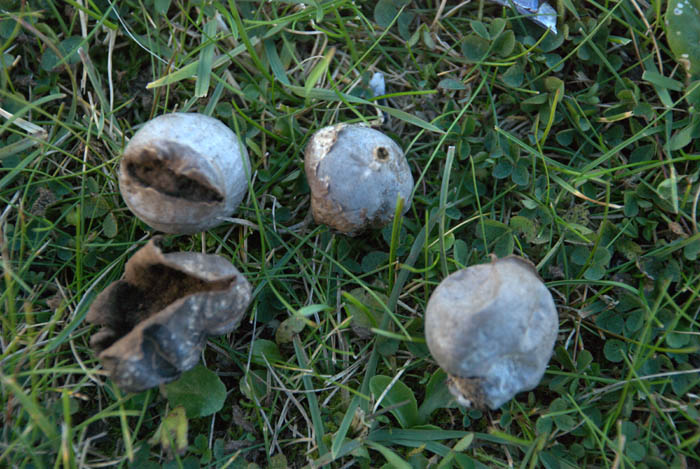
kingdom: Fungi
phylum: Basidiomycota
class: Agaricomycetes
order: Agaricales
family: Lycoperdaceae
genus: Bovista
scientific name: Bovista plumbea
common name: blygrå bovist
